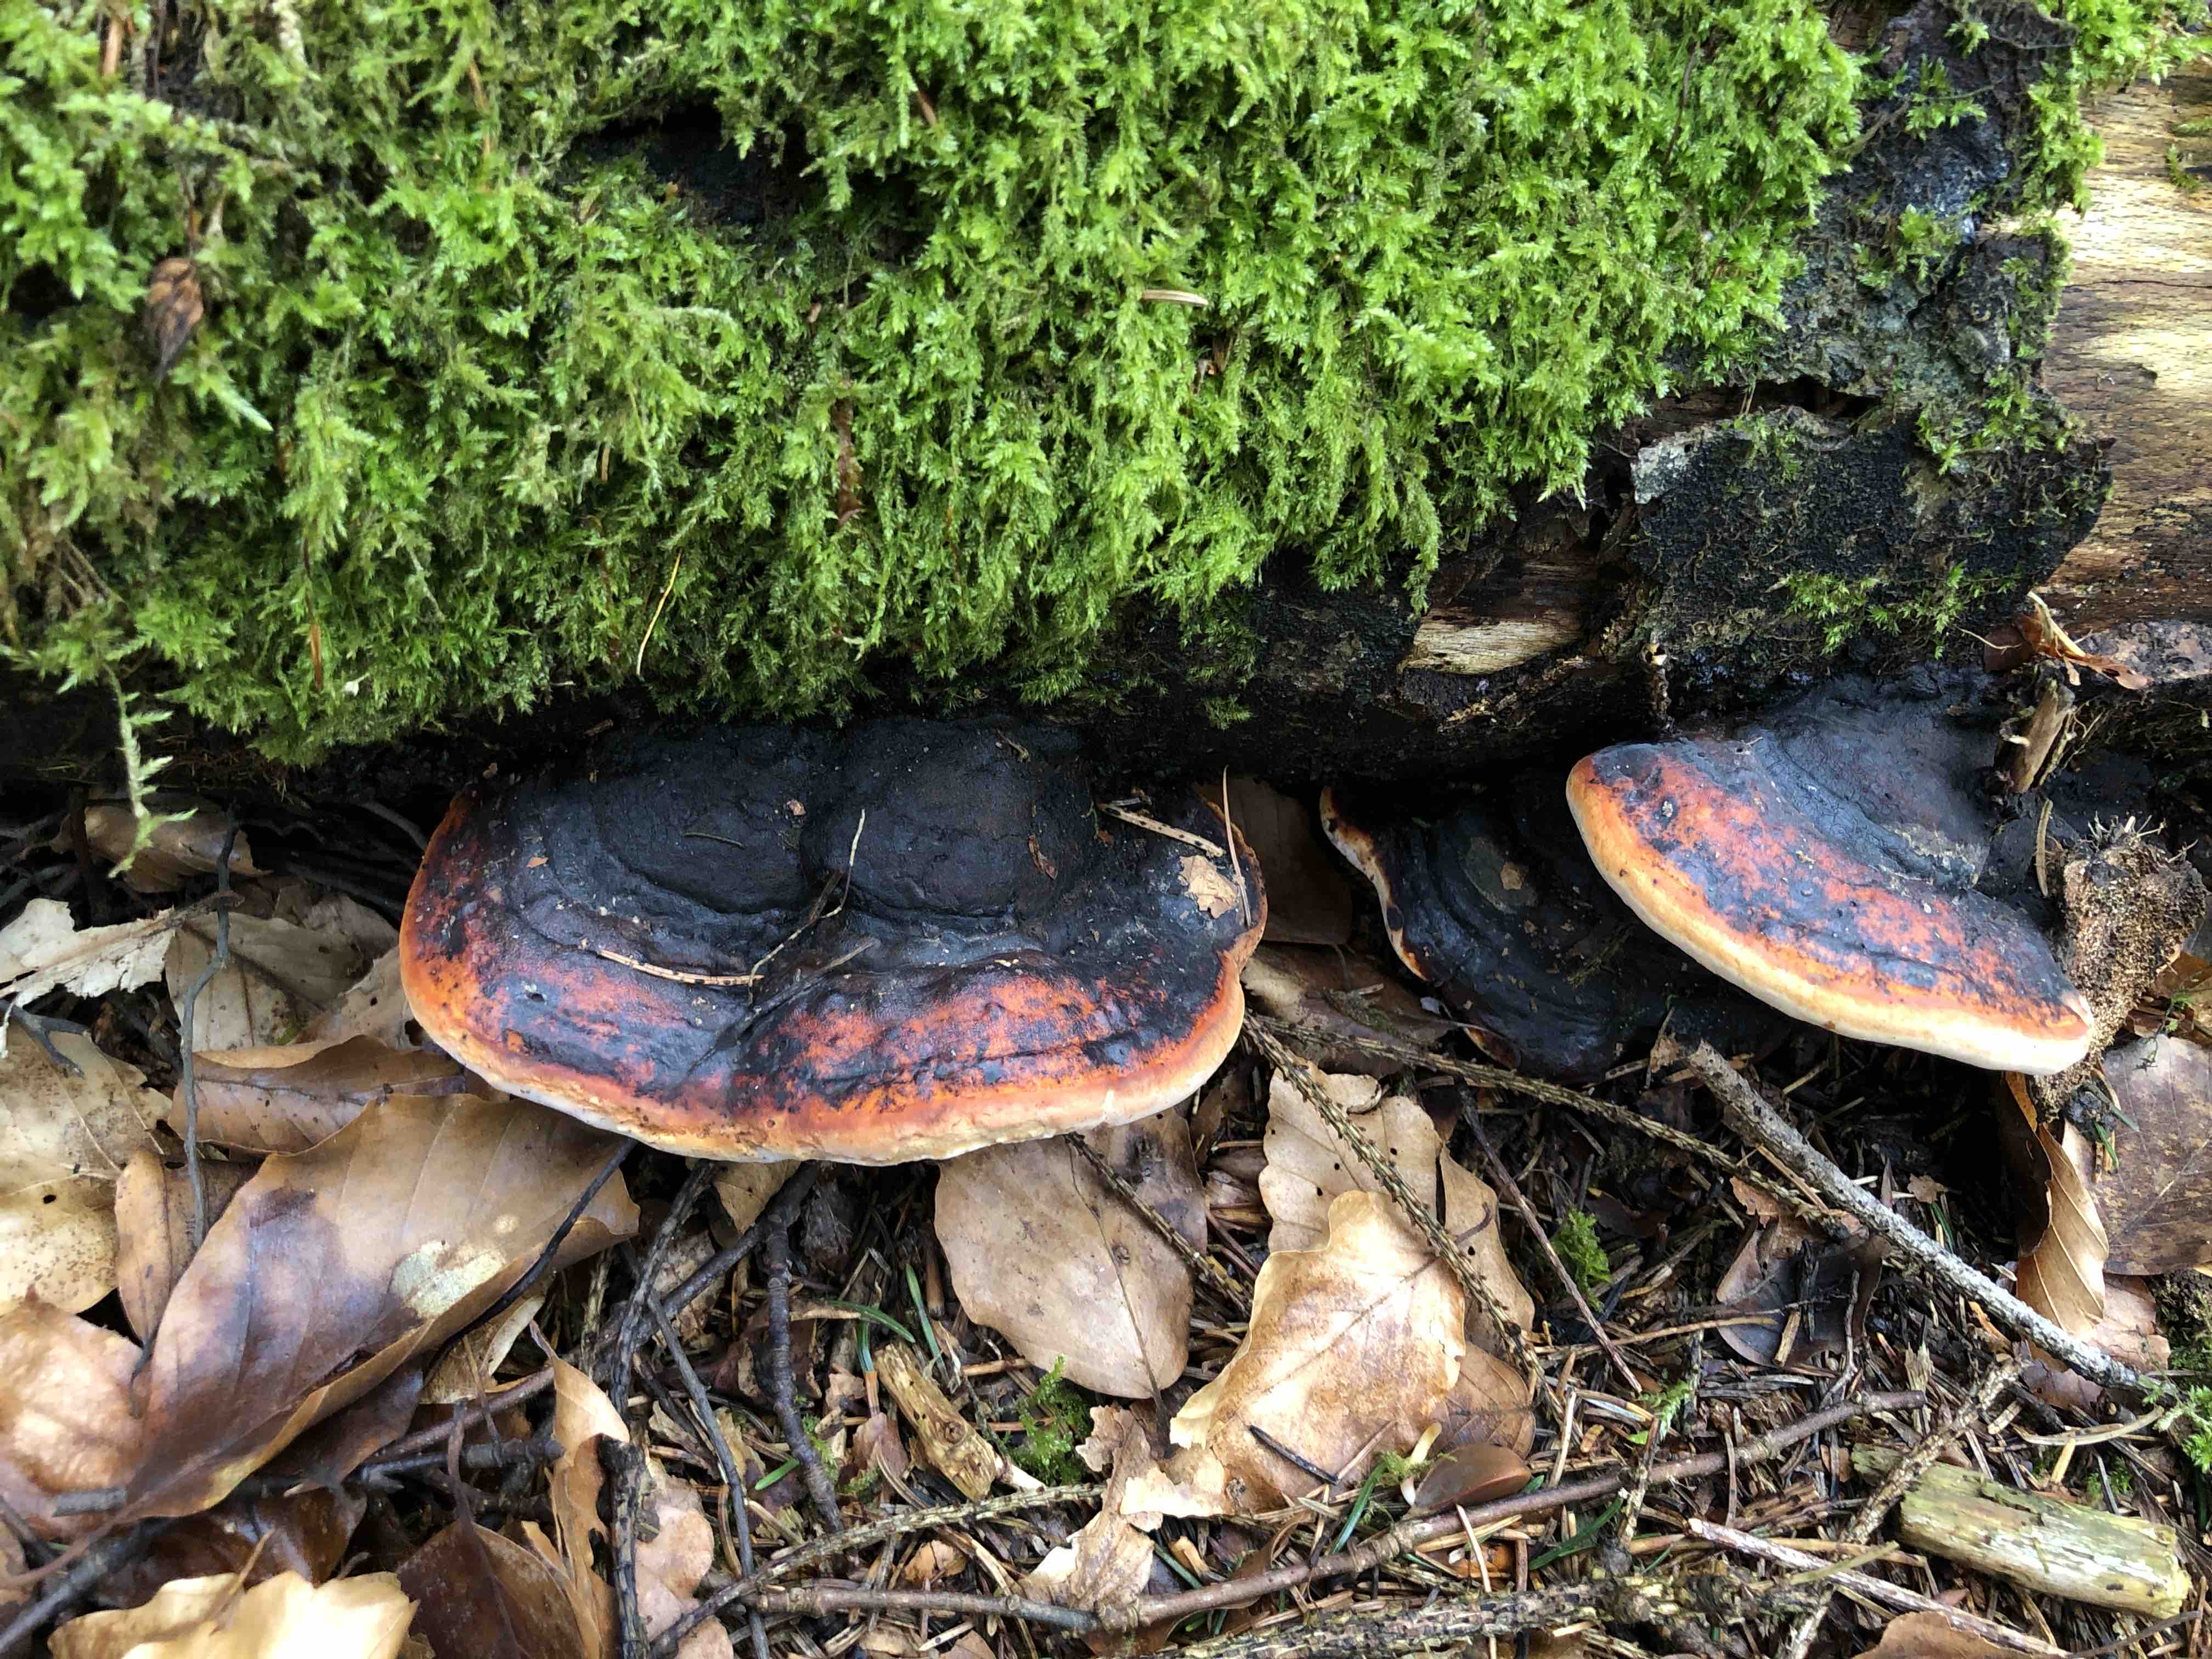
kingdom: Fungi
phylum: Basidiomycota
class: Agaricomycetes
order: Polyporales
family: Fomitopsidaceae
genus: Fomitopsis
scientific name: Fomitopsis pinicola
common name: randbæltet hovporesvamp
